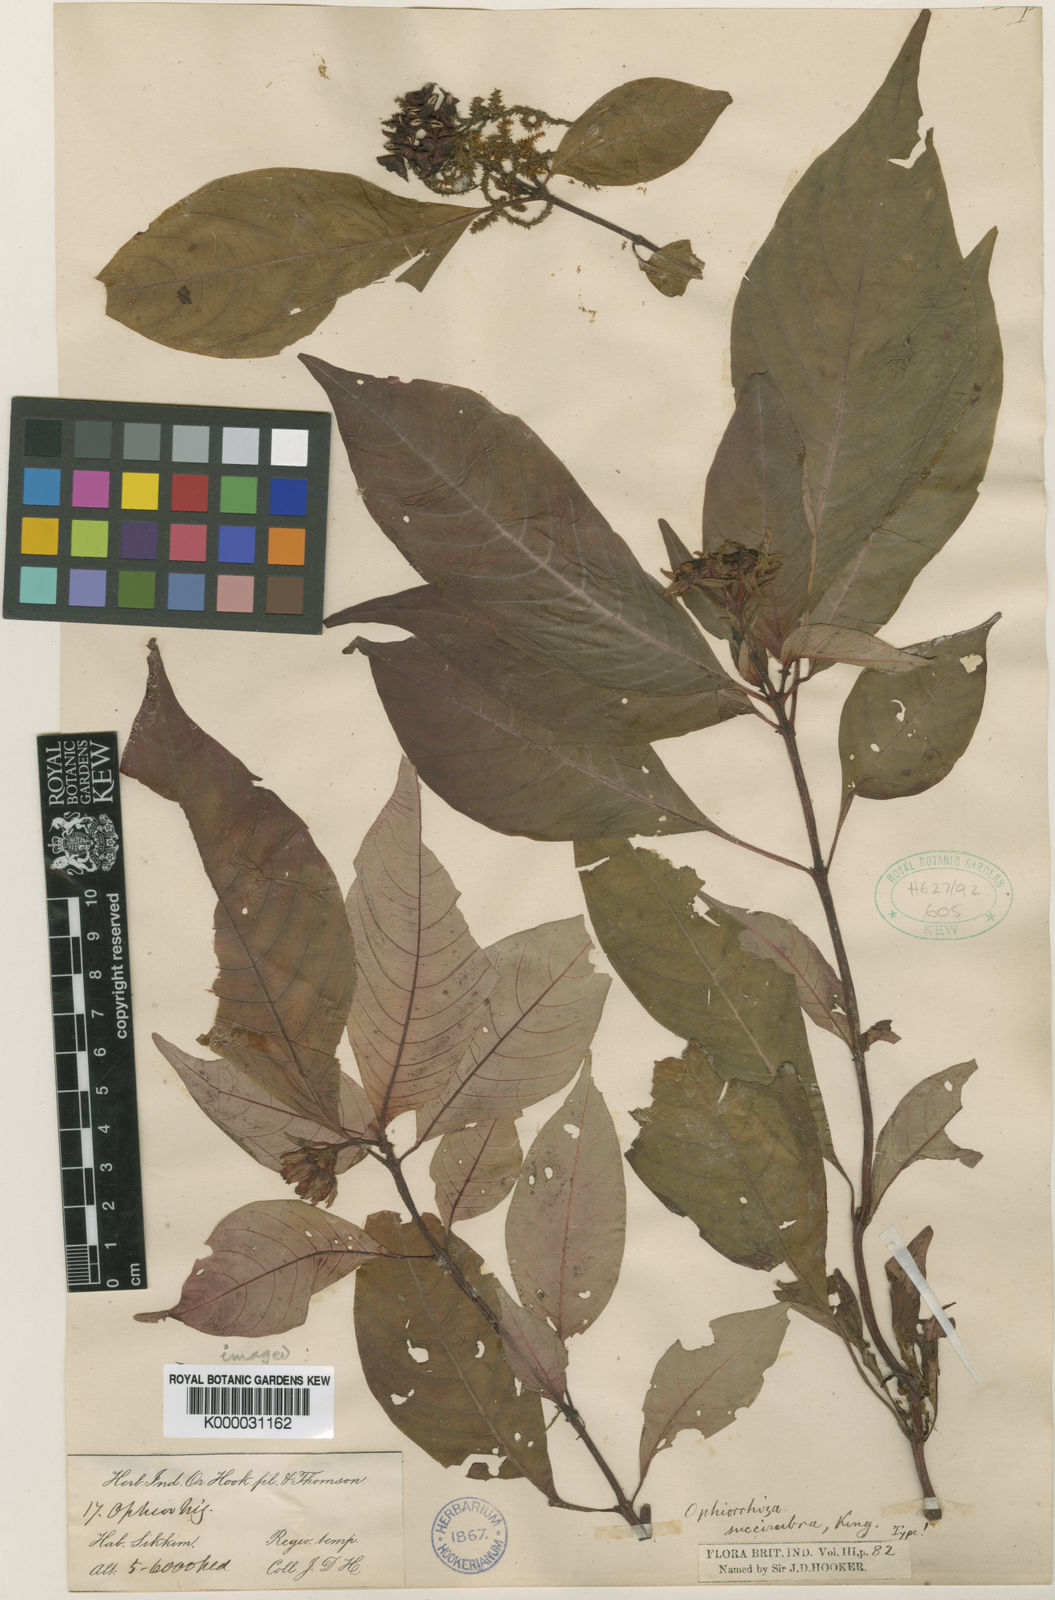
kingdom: Plantae
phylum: Tracheophyta
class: Magnoliopsida
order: Gentianales
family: Rubiaceae
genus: Ophiorrhiza
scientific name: Ophiorrhiza
